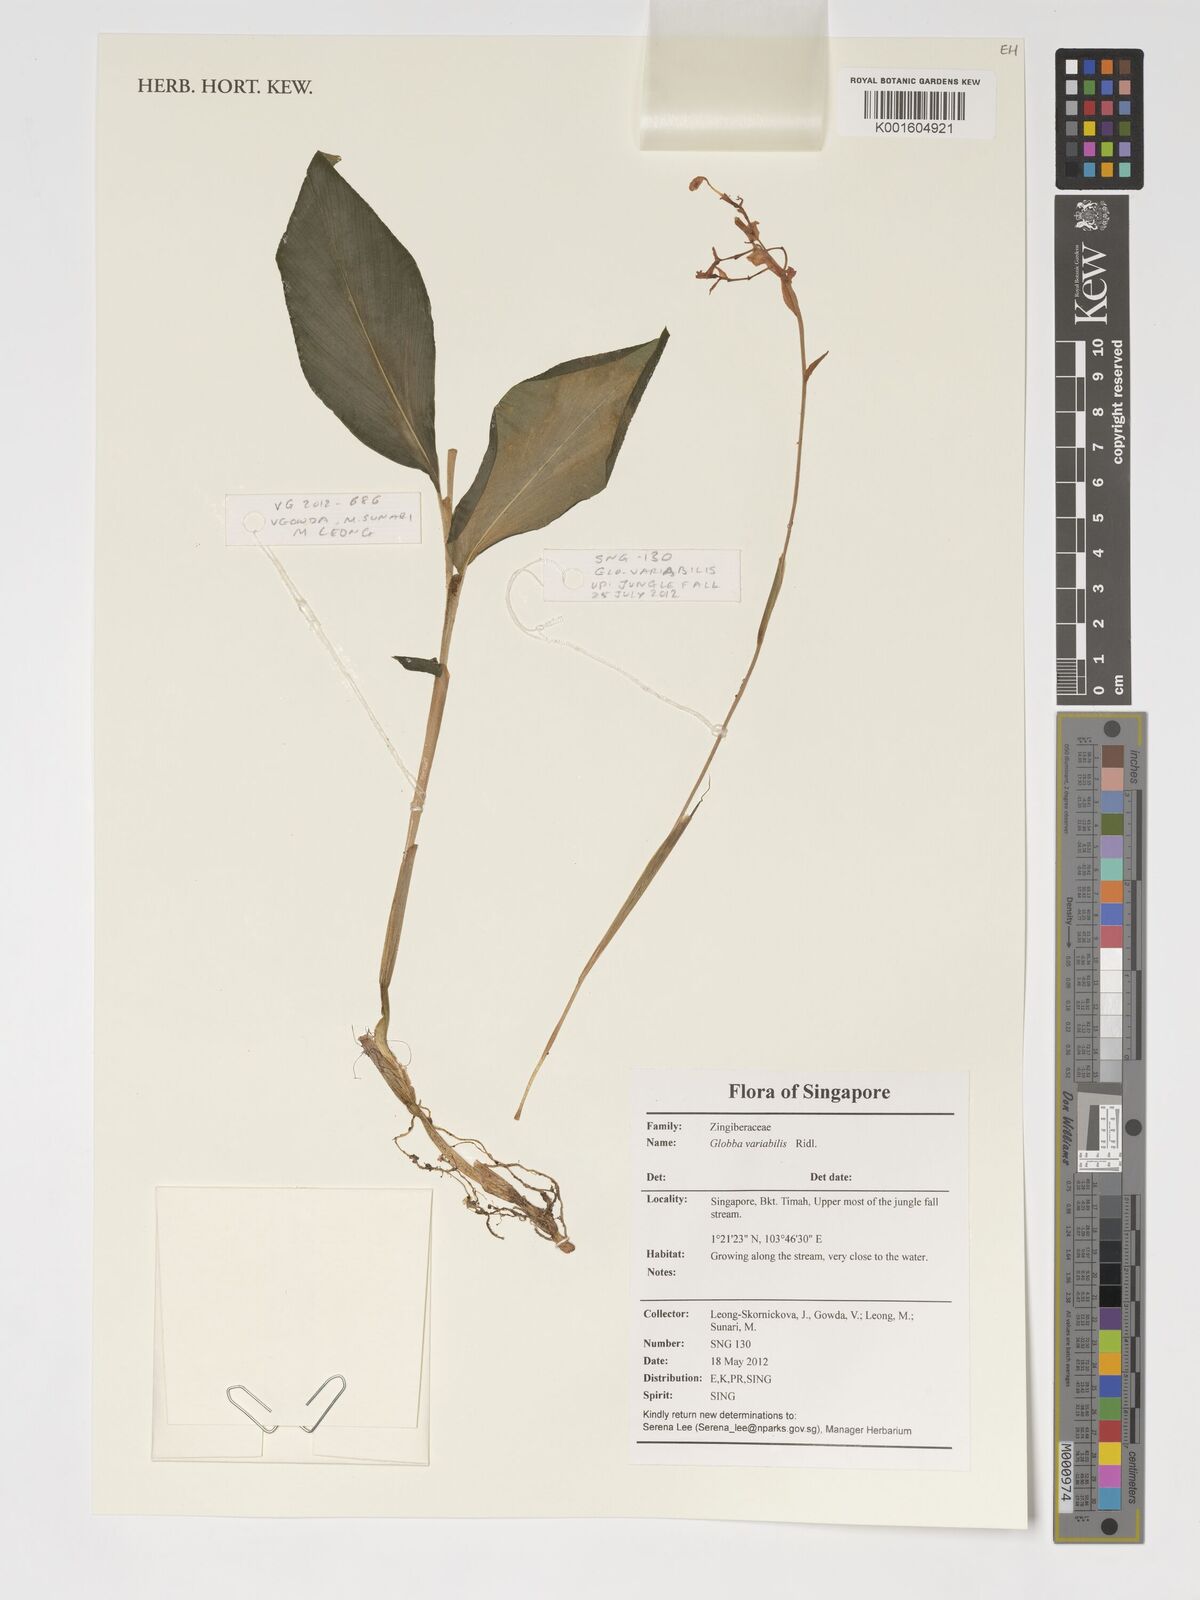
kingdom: Plantae
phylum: Tracheophyta
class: Liliopsida
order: Zingiberales
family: Zingiberaceae
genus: Globba
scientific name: Globba variabilis
